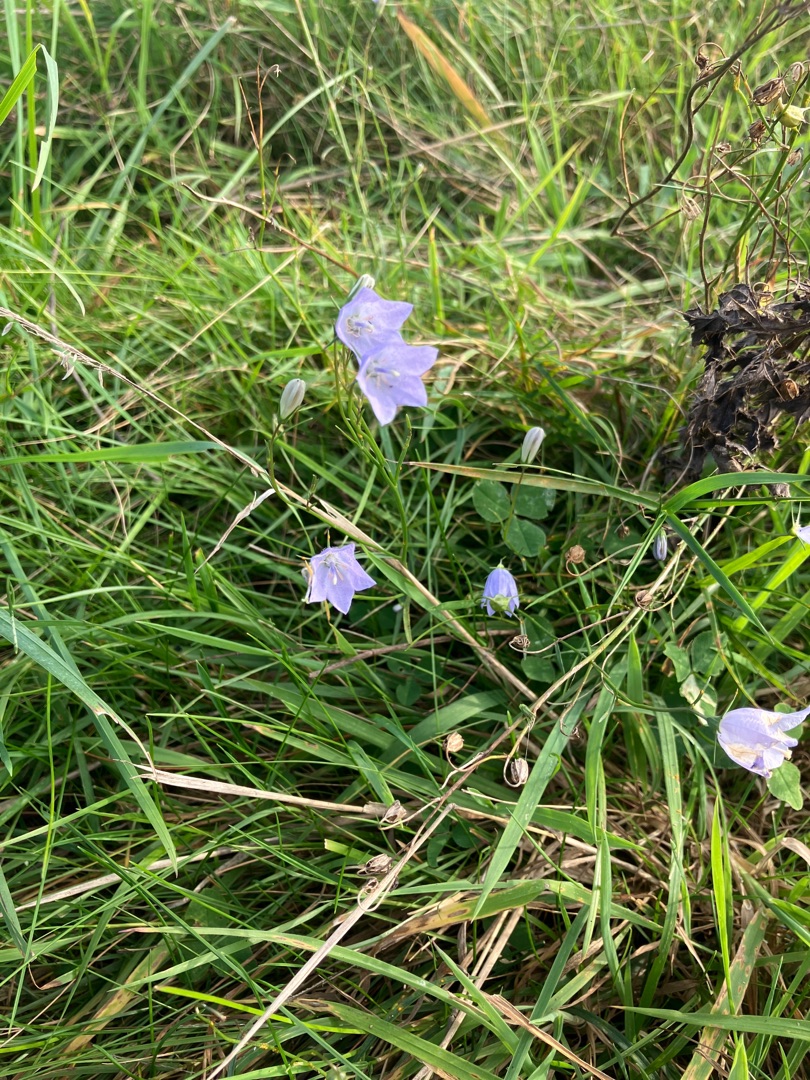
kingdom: Plantae
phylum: Tracheophyta
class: Magnoliopsida
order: Asterales
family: Campanulaceae
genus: Campanula
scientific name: Campanula rotundifolia
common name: Liden klokke
